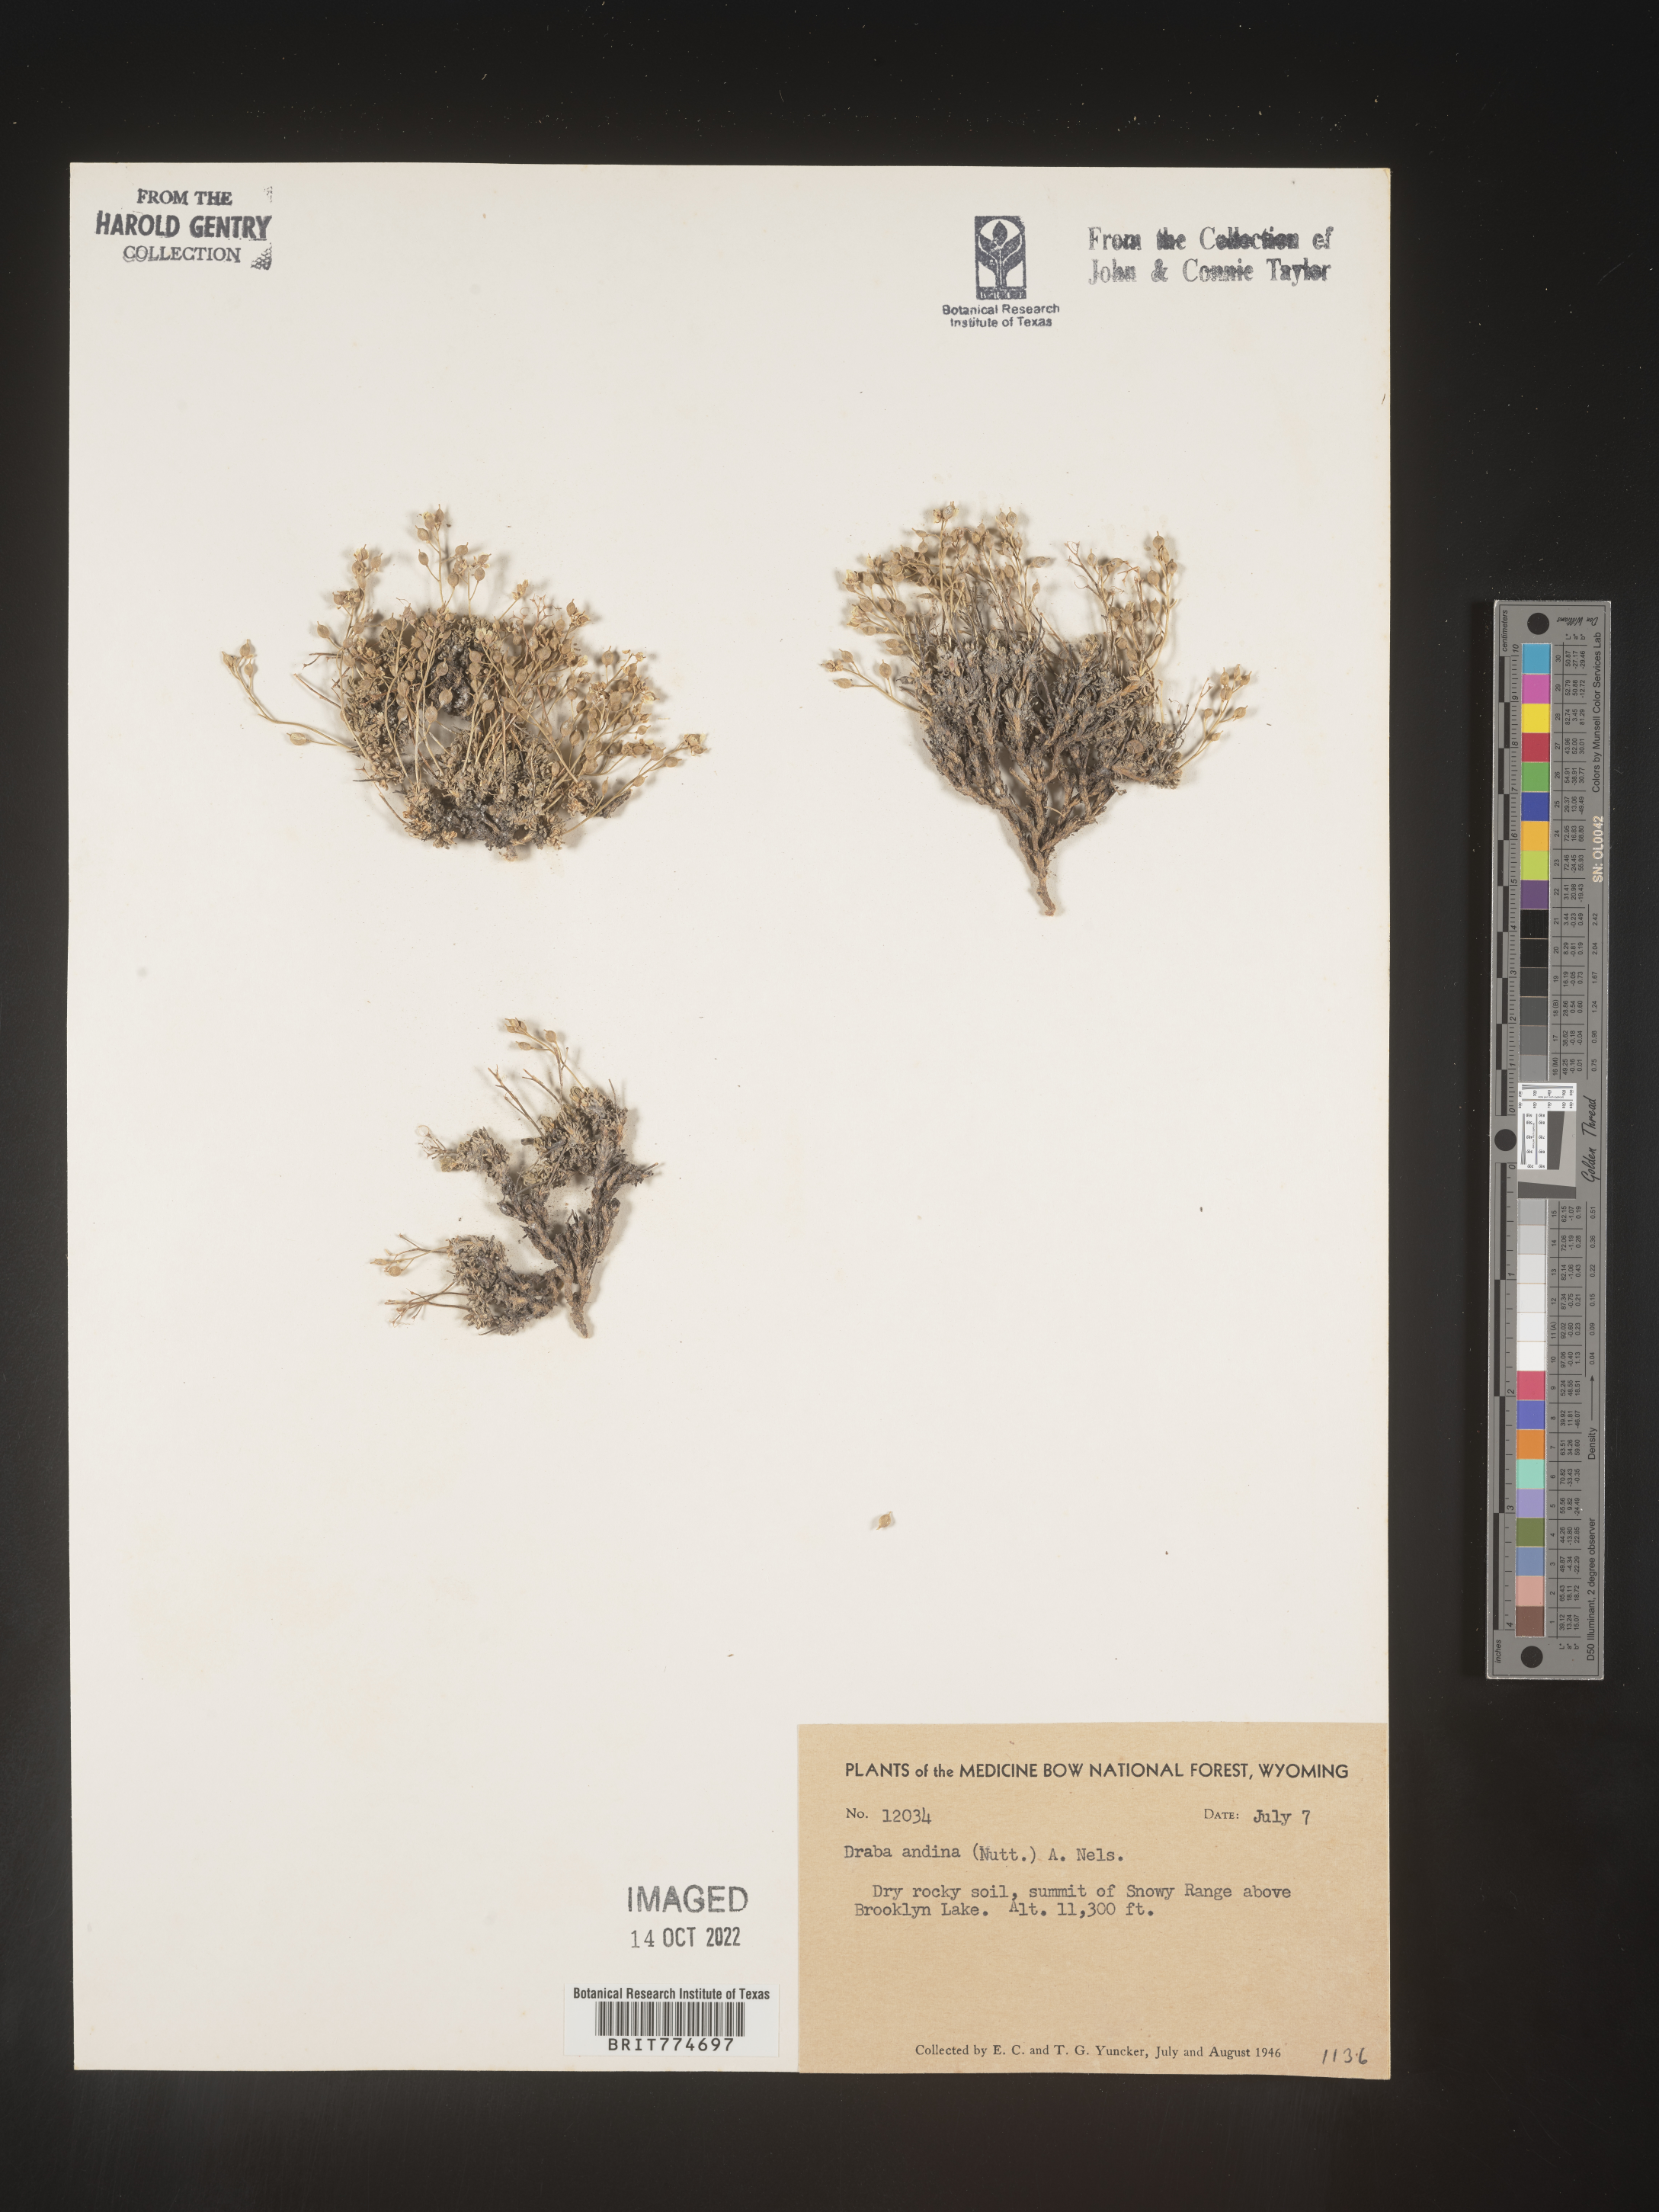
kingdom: Plantae
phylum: Tracheophyta
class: Magnoliopsida
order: Brassicales
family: Brassicaceae
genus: Draba
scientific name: Draba
